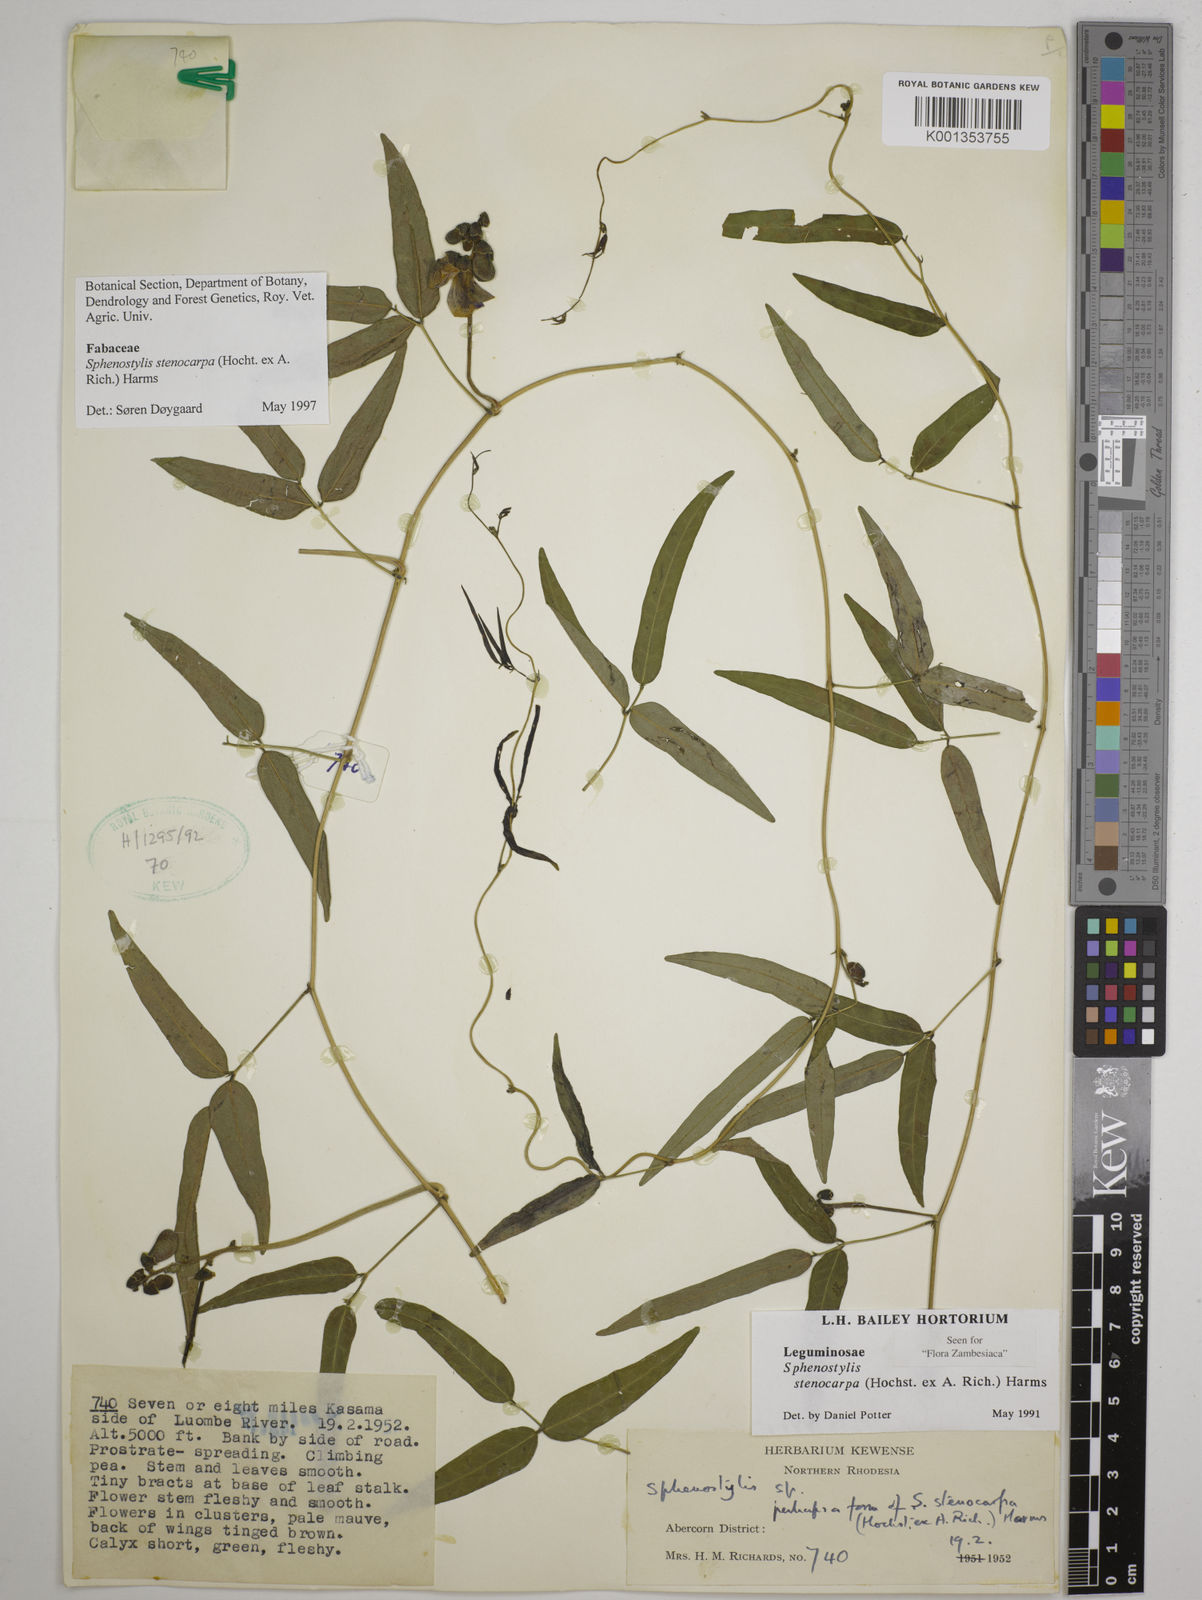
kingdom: Plantae
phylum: Tracheophyta
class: Magnoliopsida
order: Fabales
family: Fabaceae
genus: Sphenostylis
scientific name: Sphenostylis stenocarpa
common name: Yam-pea
